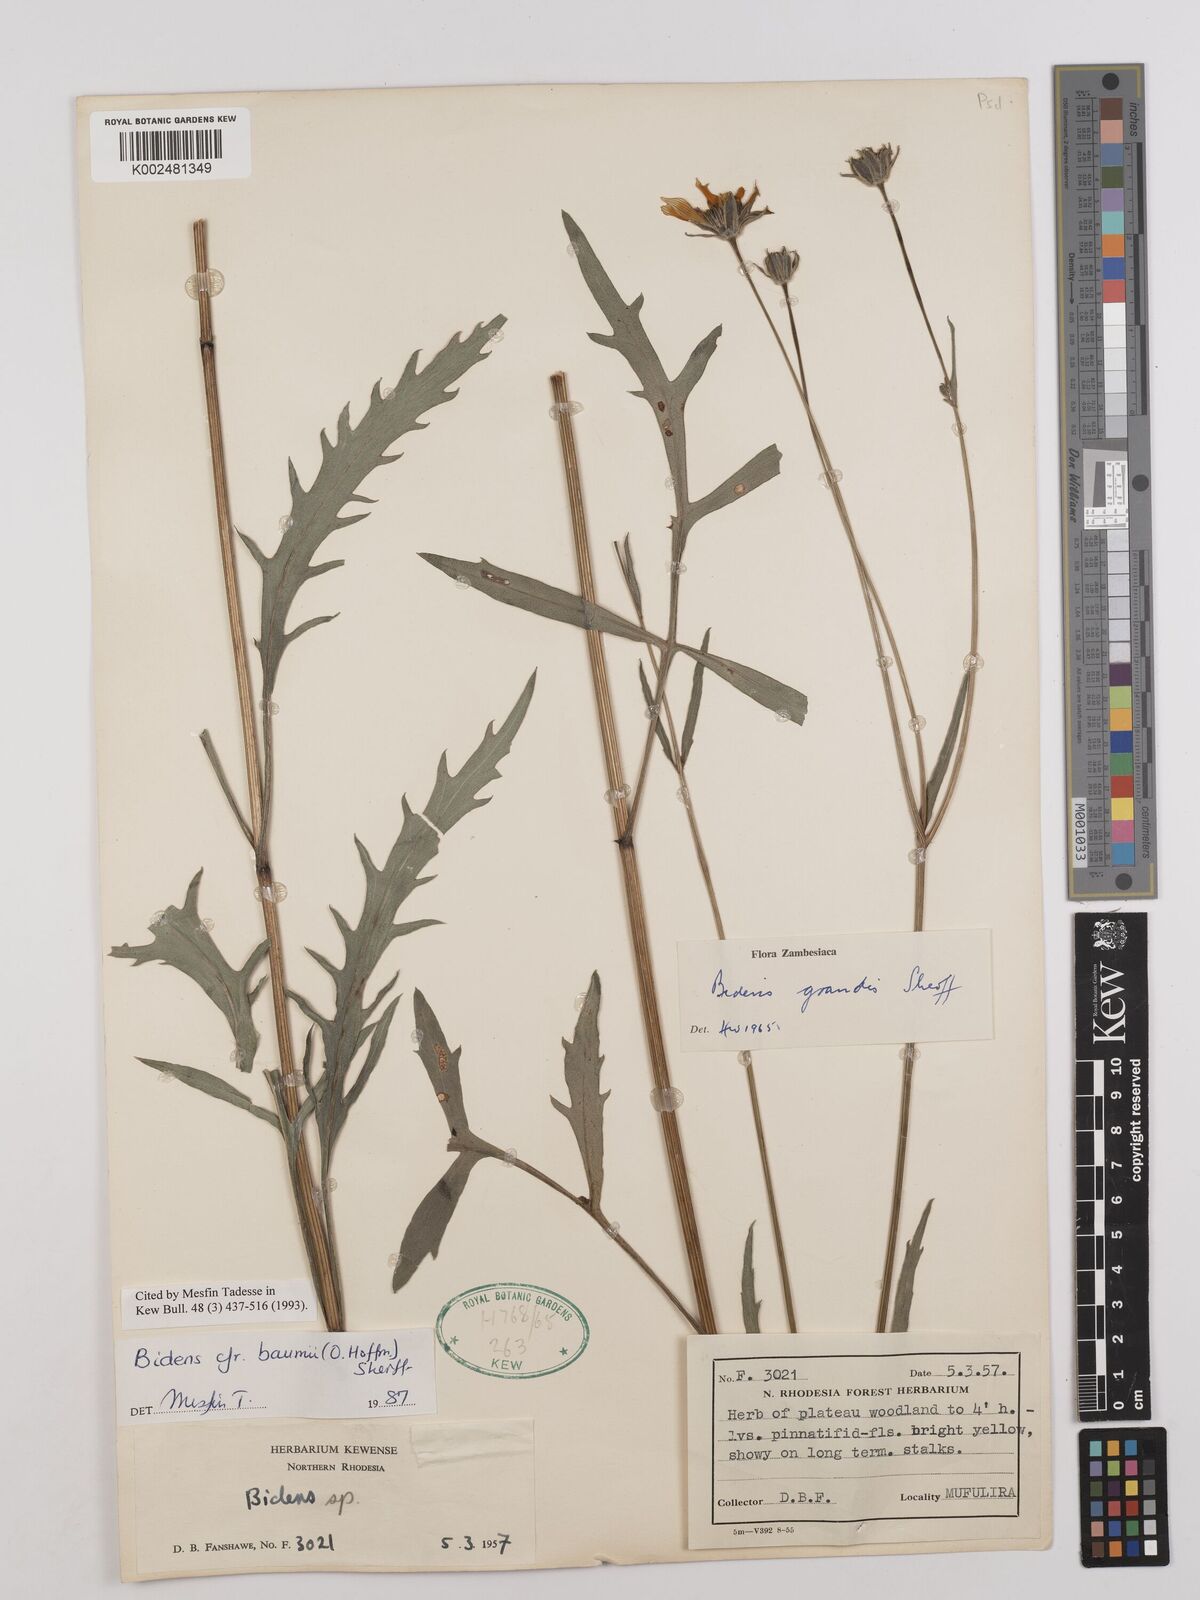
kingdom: Plantae
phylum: Tracheophyta
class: Magnoliopsida
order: Asterales
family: Asteraceae
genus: Bidens
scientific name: Bidens baumii
